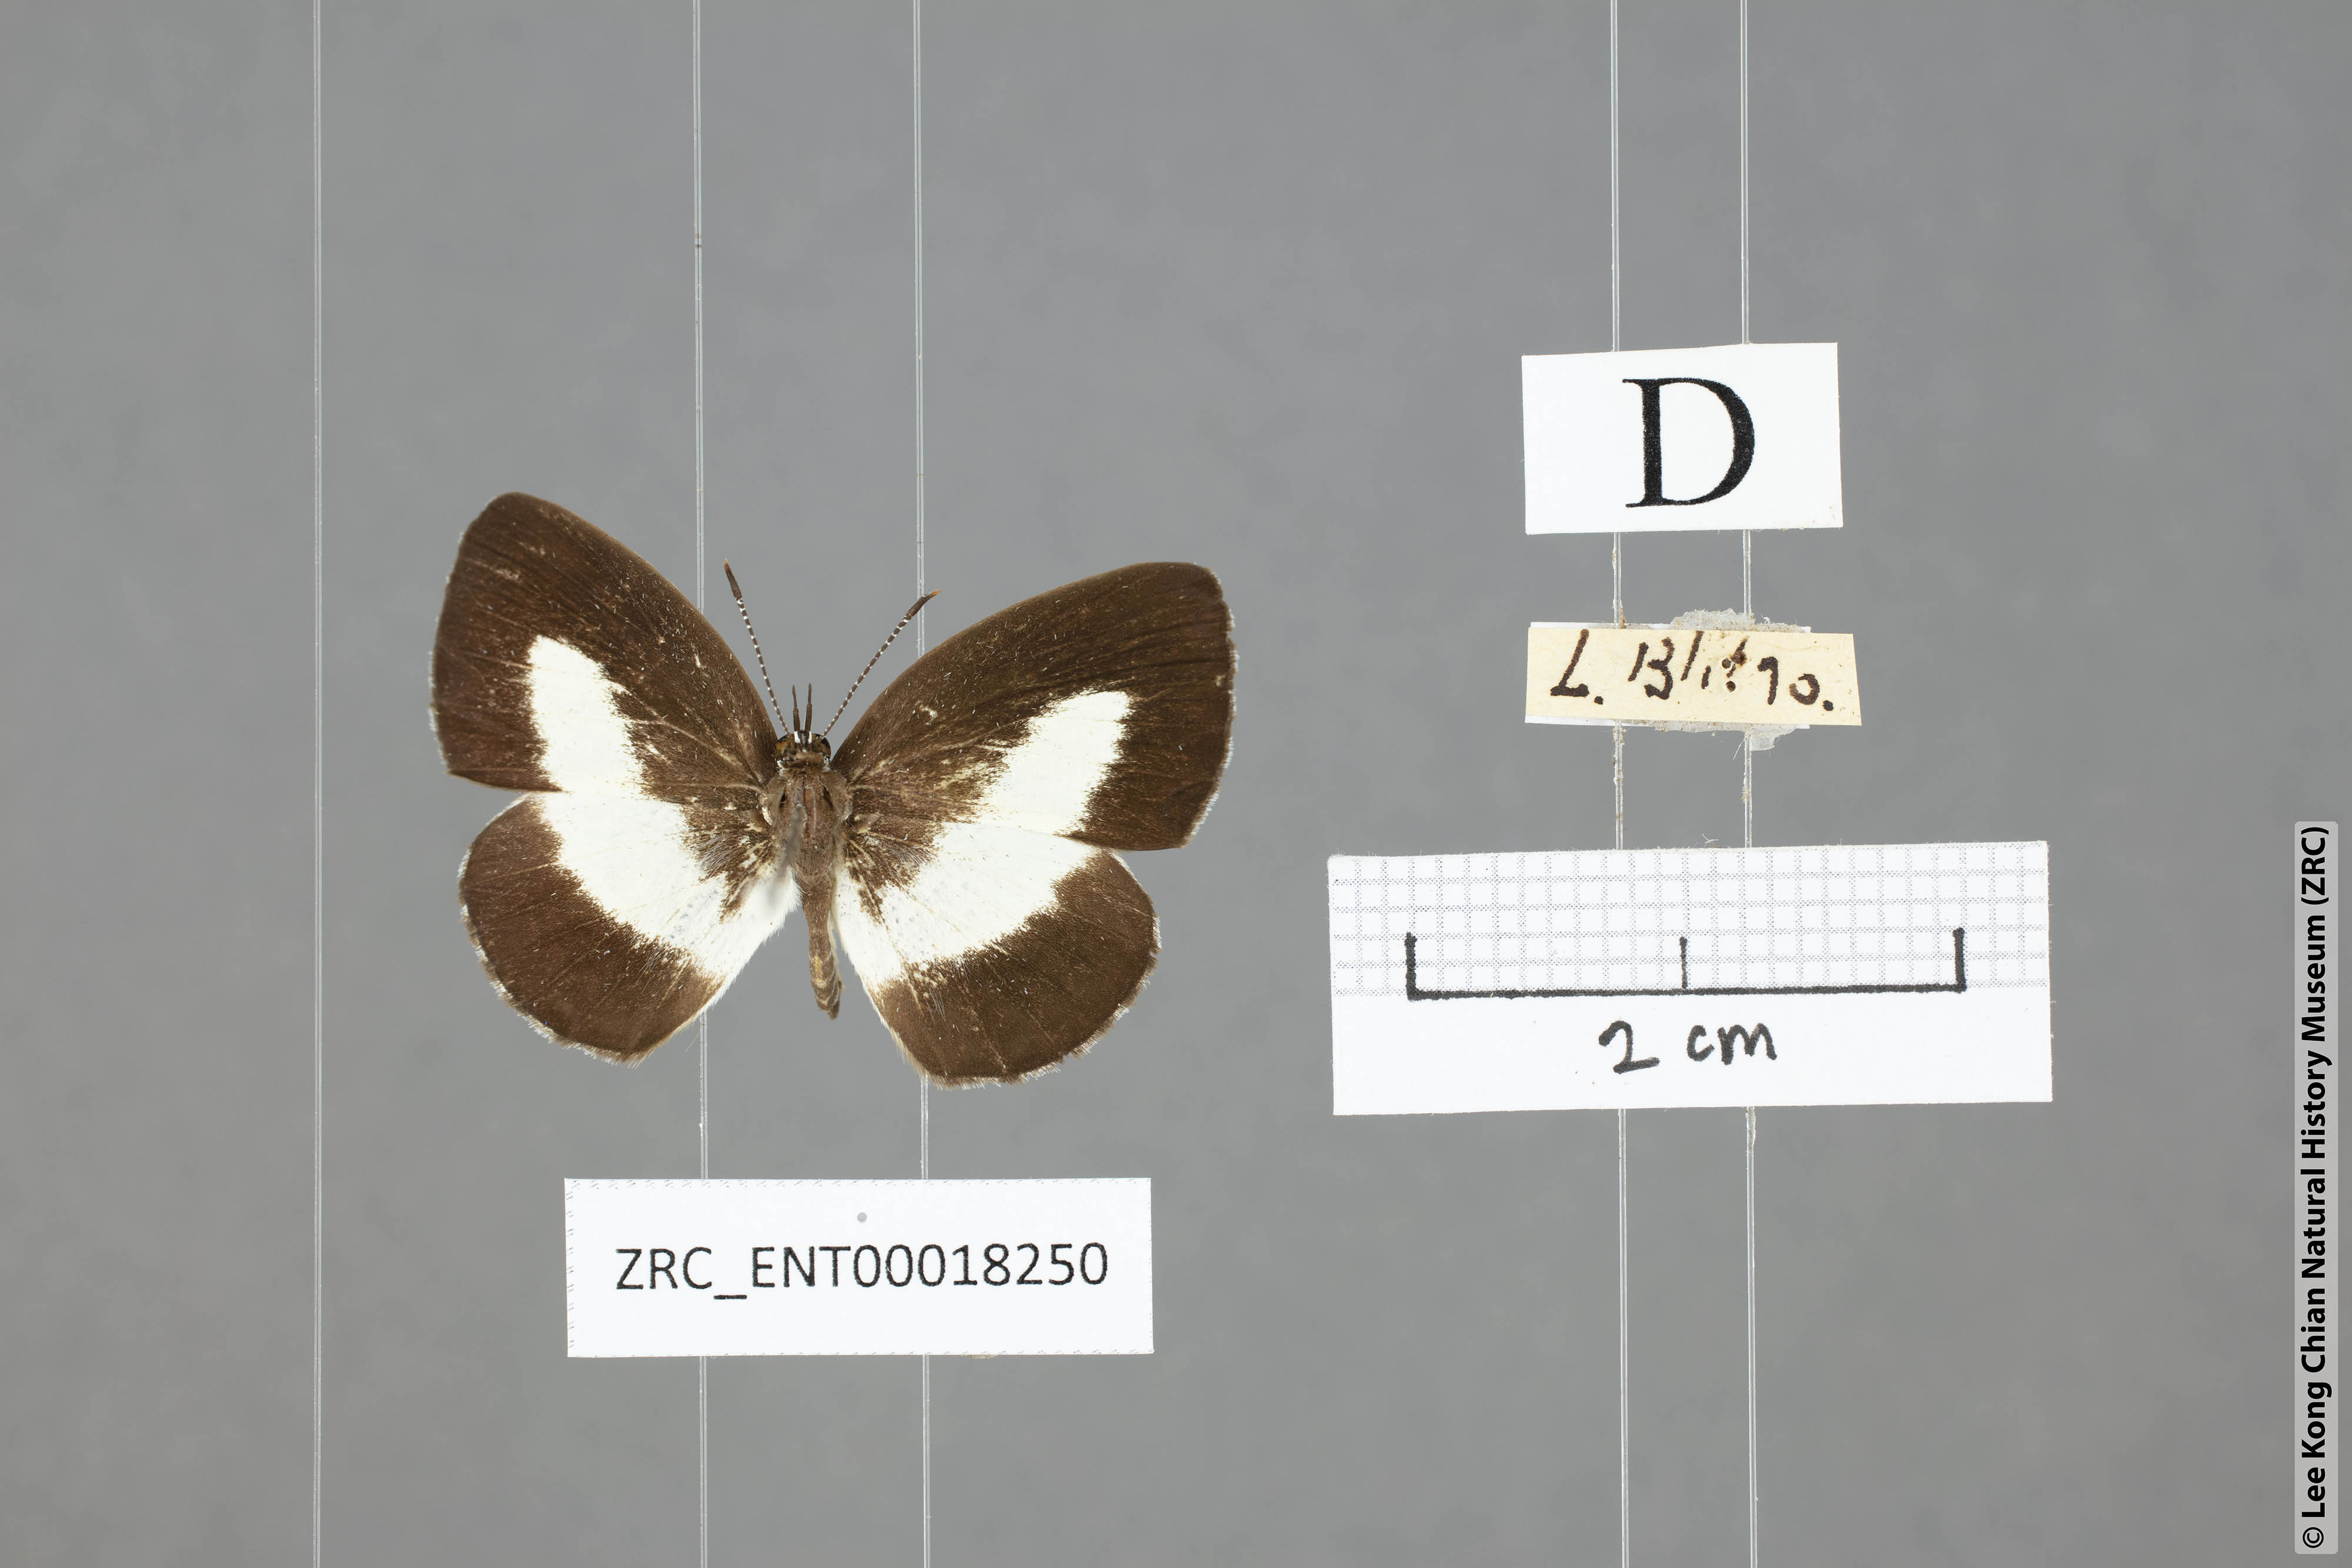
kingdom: Animalia
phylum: Arthropoda
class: Insecta
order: Lepidoptera
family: Lycaenidae
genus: Lycaenopsis
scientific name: Lycaenopsis haraldus
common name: Felder's hedge blue
